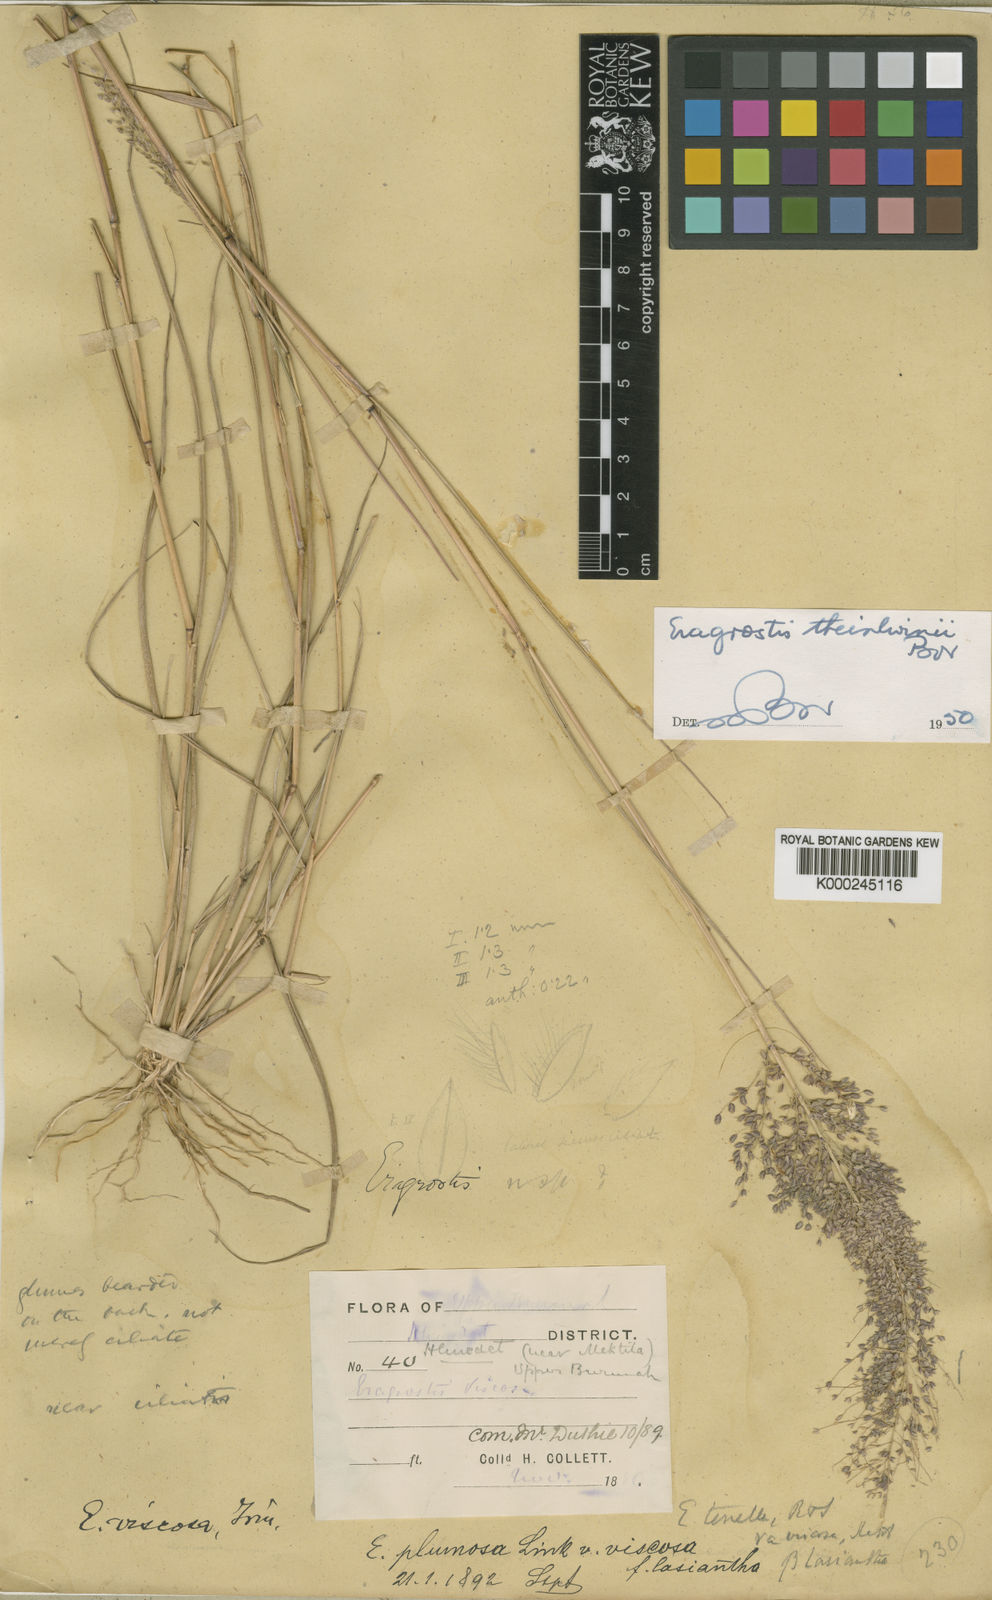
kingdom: Plantae
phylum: Tracheophyta
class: Liliopsida
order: Poales
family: Poaceae
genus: Eragrostis
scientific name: Eragrostis theinlwinii
